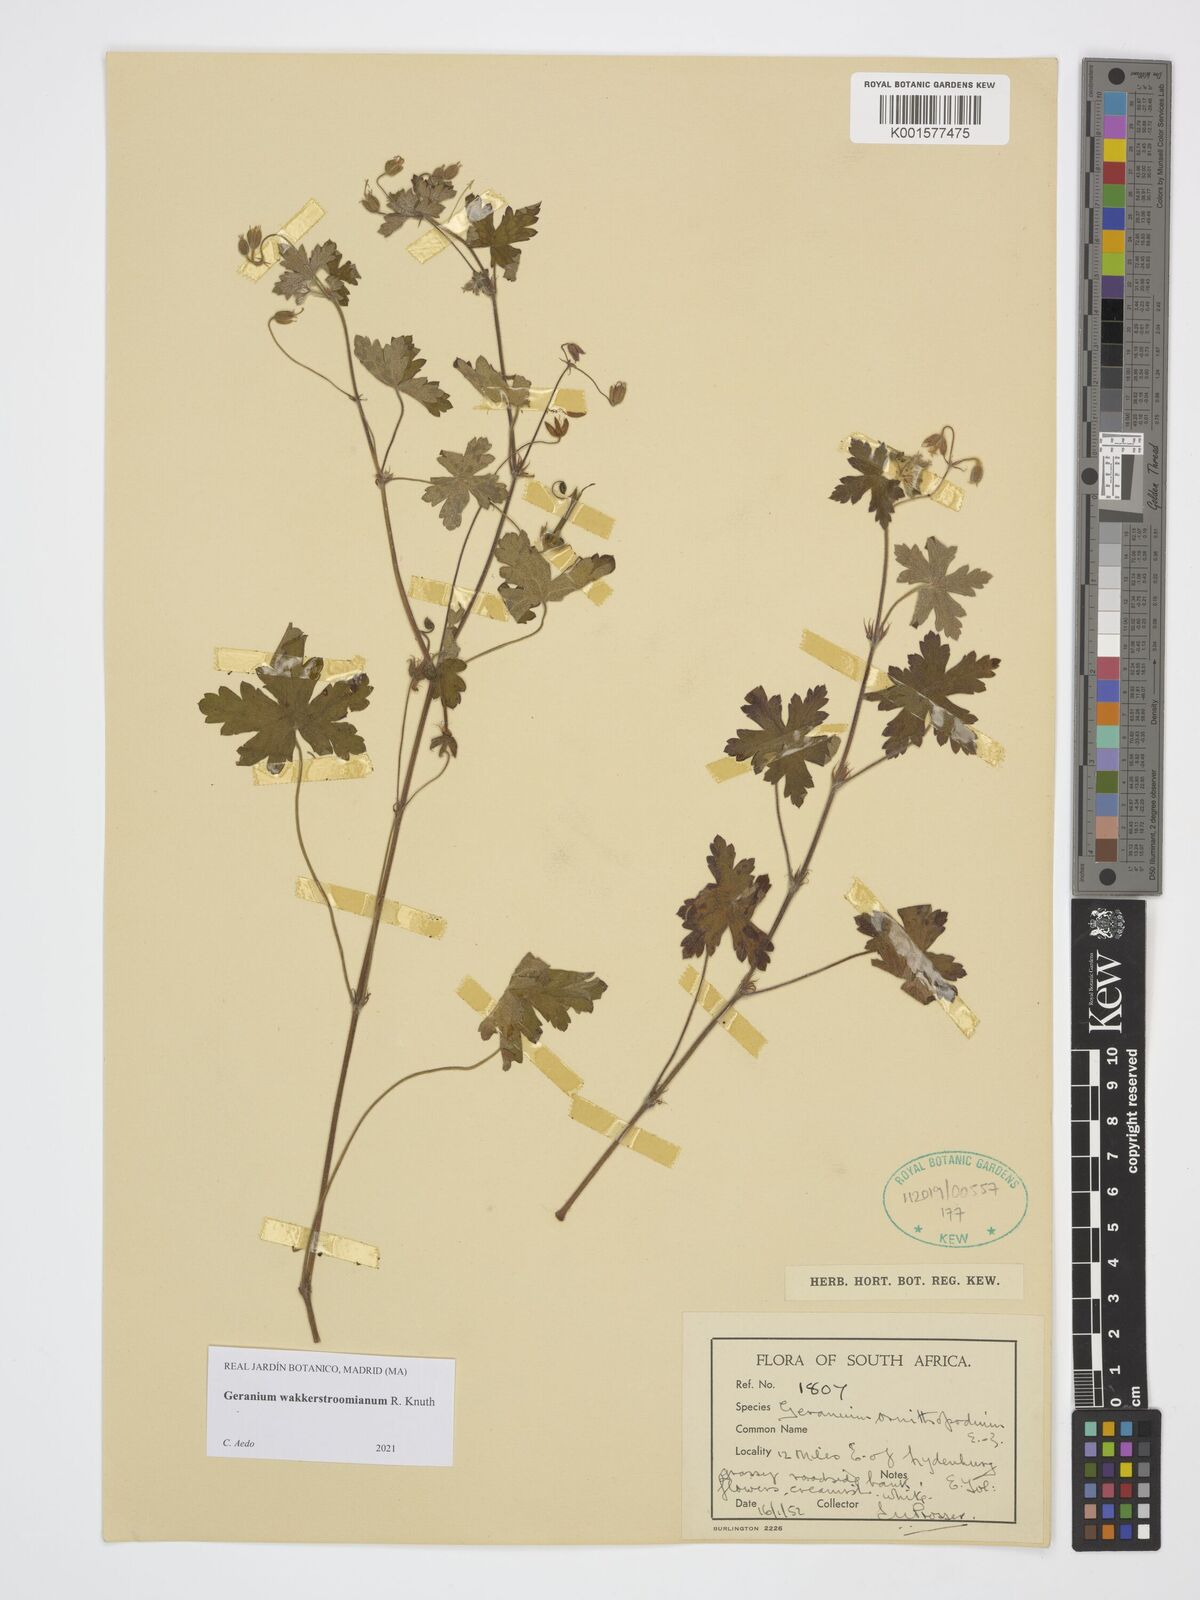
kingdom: Plantae
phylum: Tracheophyta
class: Magnoliopsida
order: Geraniales
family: Geraniaceae
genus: Geranium
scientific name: Geranium wakkerstroomianum
